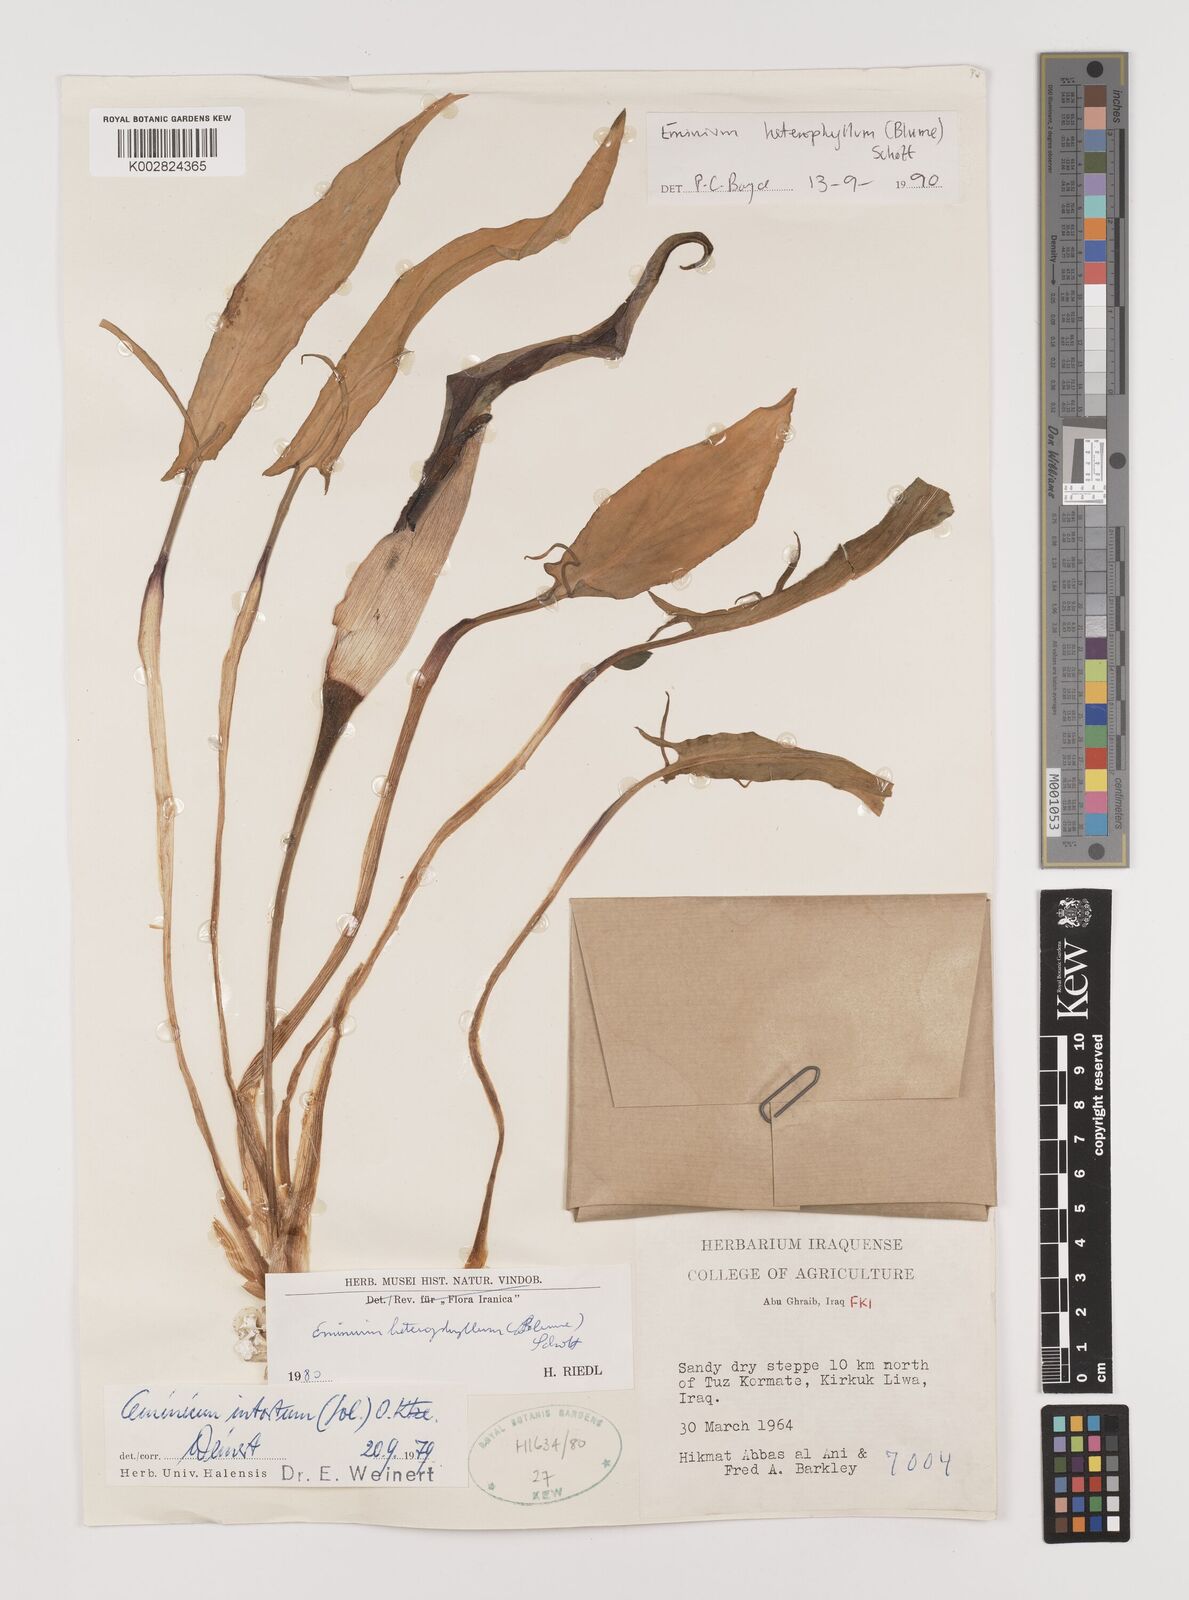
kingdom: Plantae
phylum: Tracheophyta
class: Liliopsida
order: Alismatales
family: Araceae
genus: Eminium
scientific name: Eminium rauwolffii
